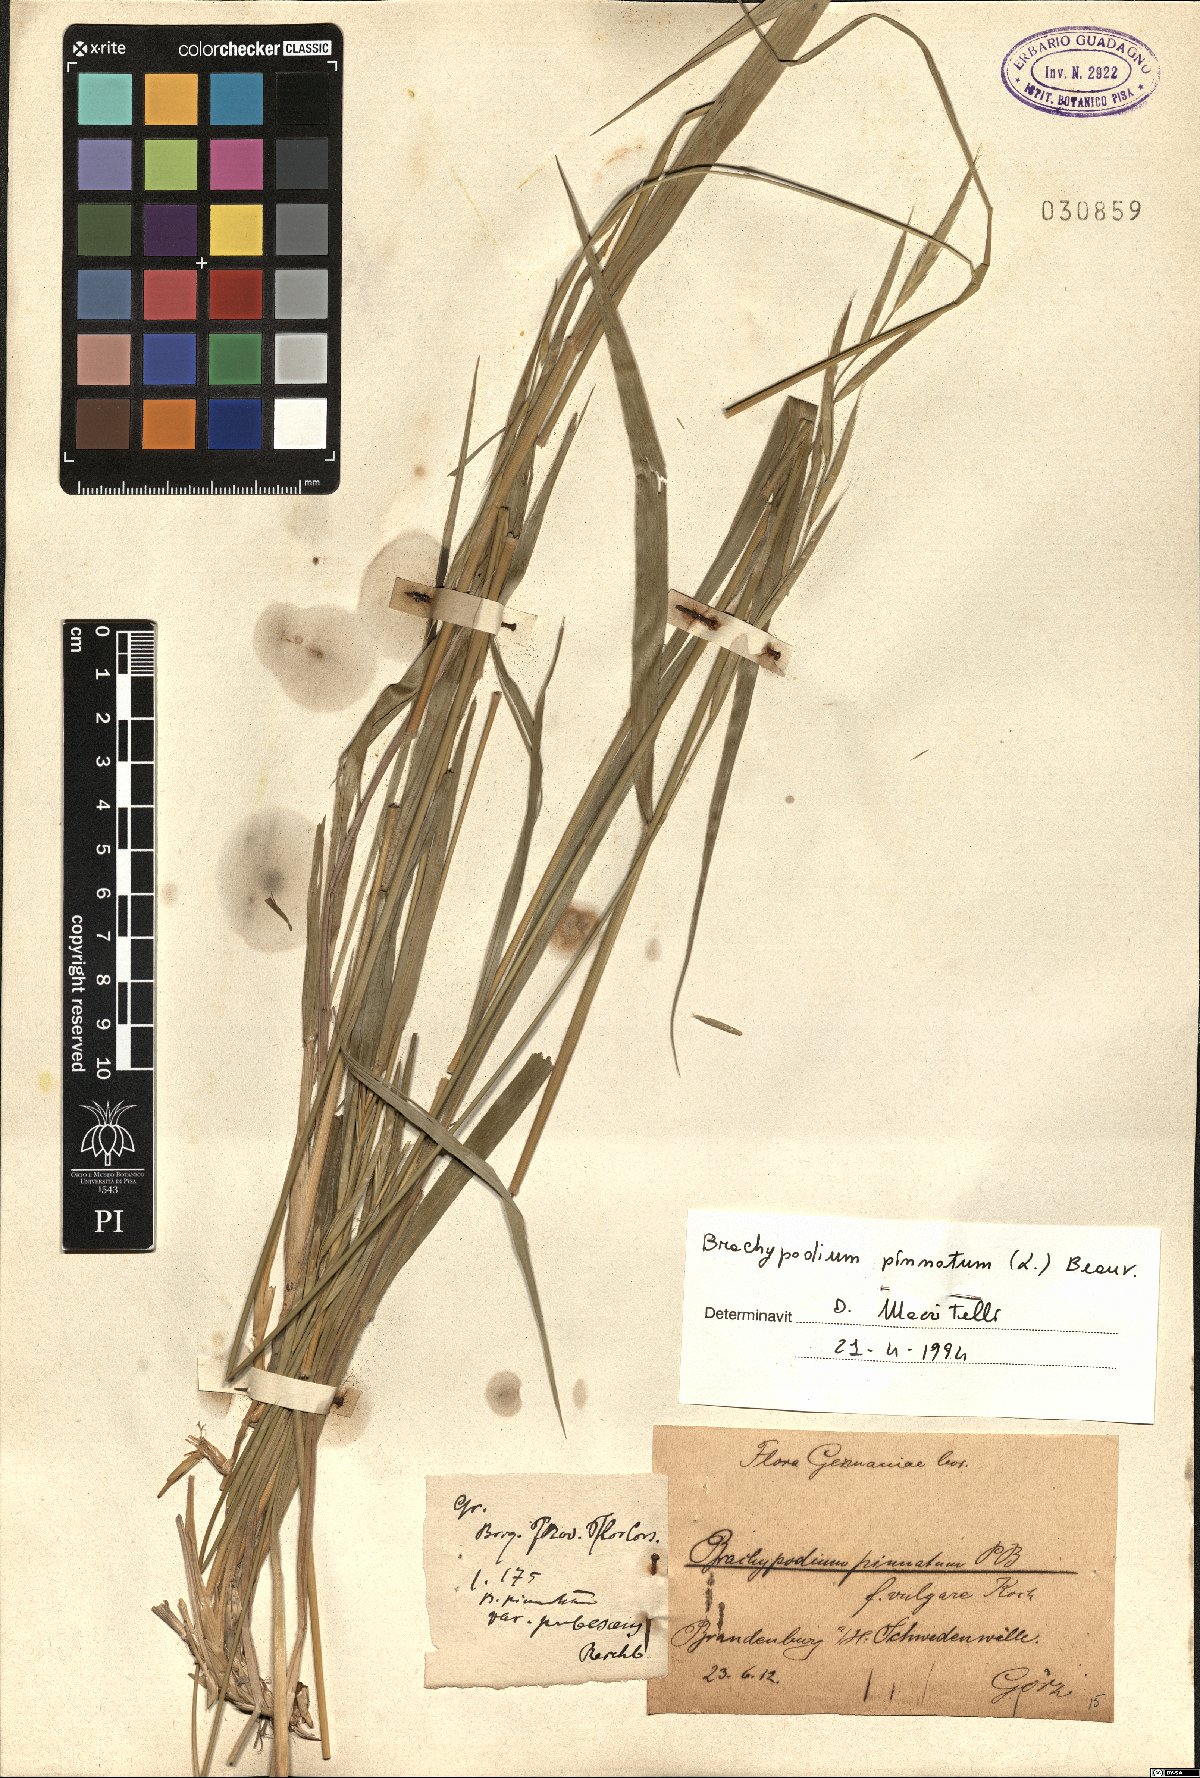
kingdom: Plantae
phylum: Tracheophyta
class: Liliopsida
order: Poales
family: Poaceae
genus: Brachypodium
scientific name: Brachypodium pinnatum
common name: Tor grass
